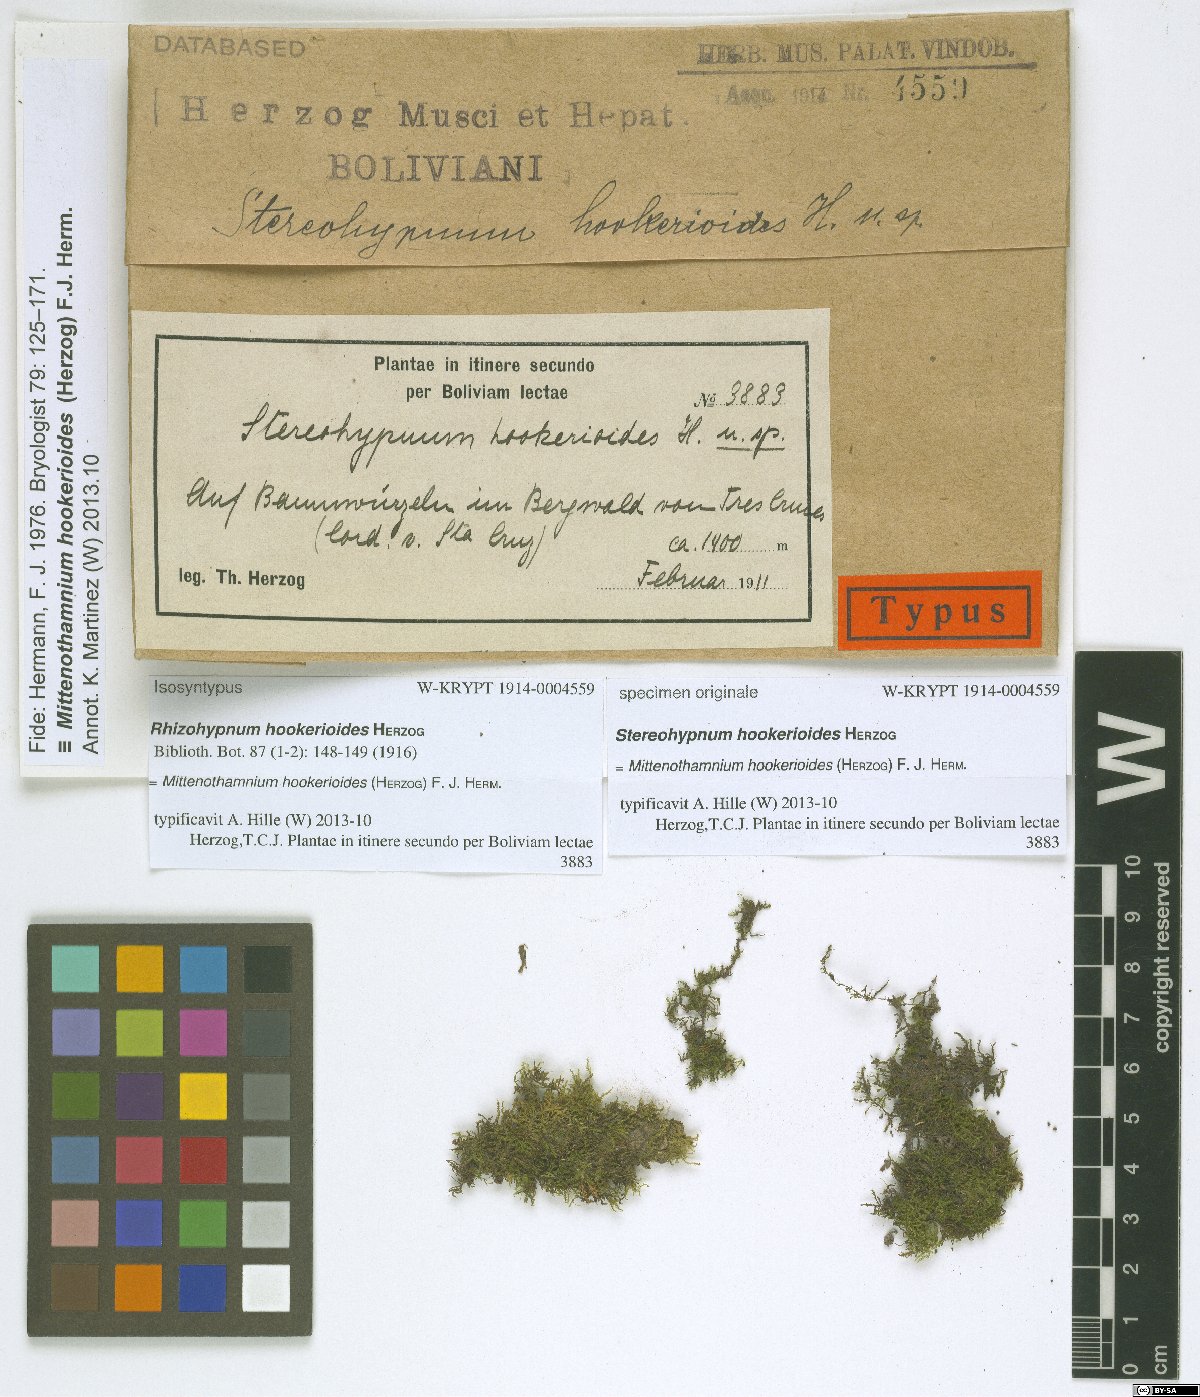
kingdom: Plantae
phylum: Bryophyta
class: Bryopsida
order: Hypnales
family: Hypnaceae
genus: Mittenothamnium
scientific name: Mittenothamnium hookerioides
